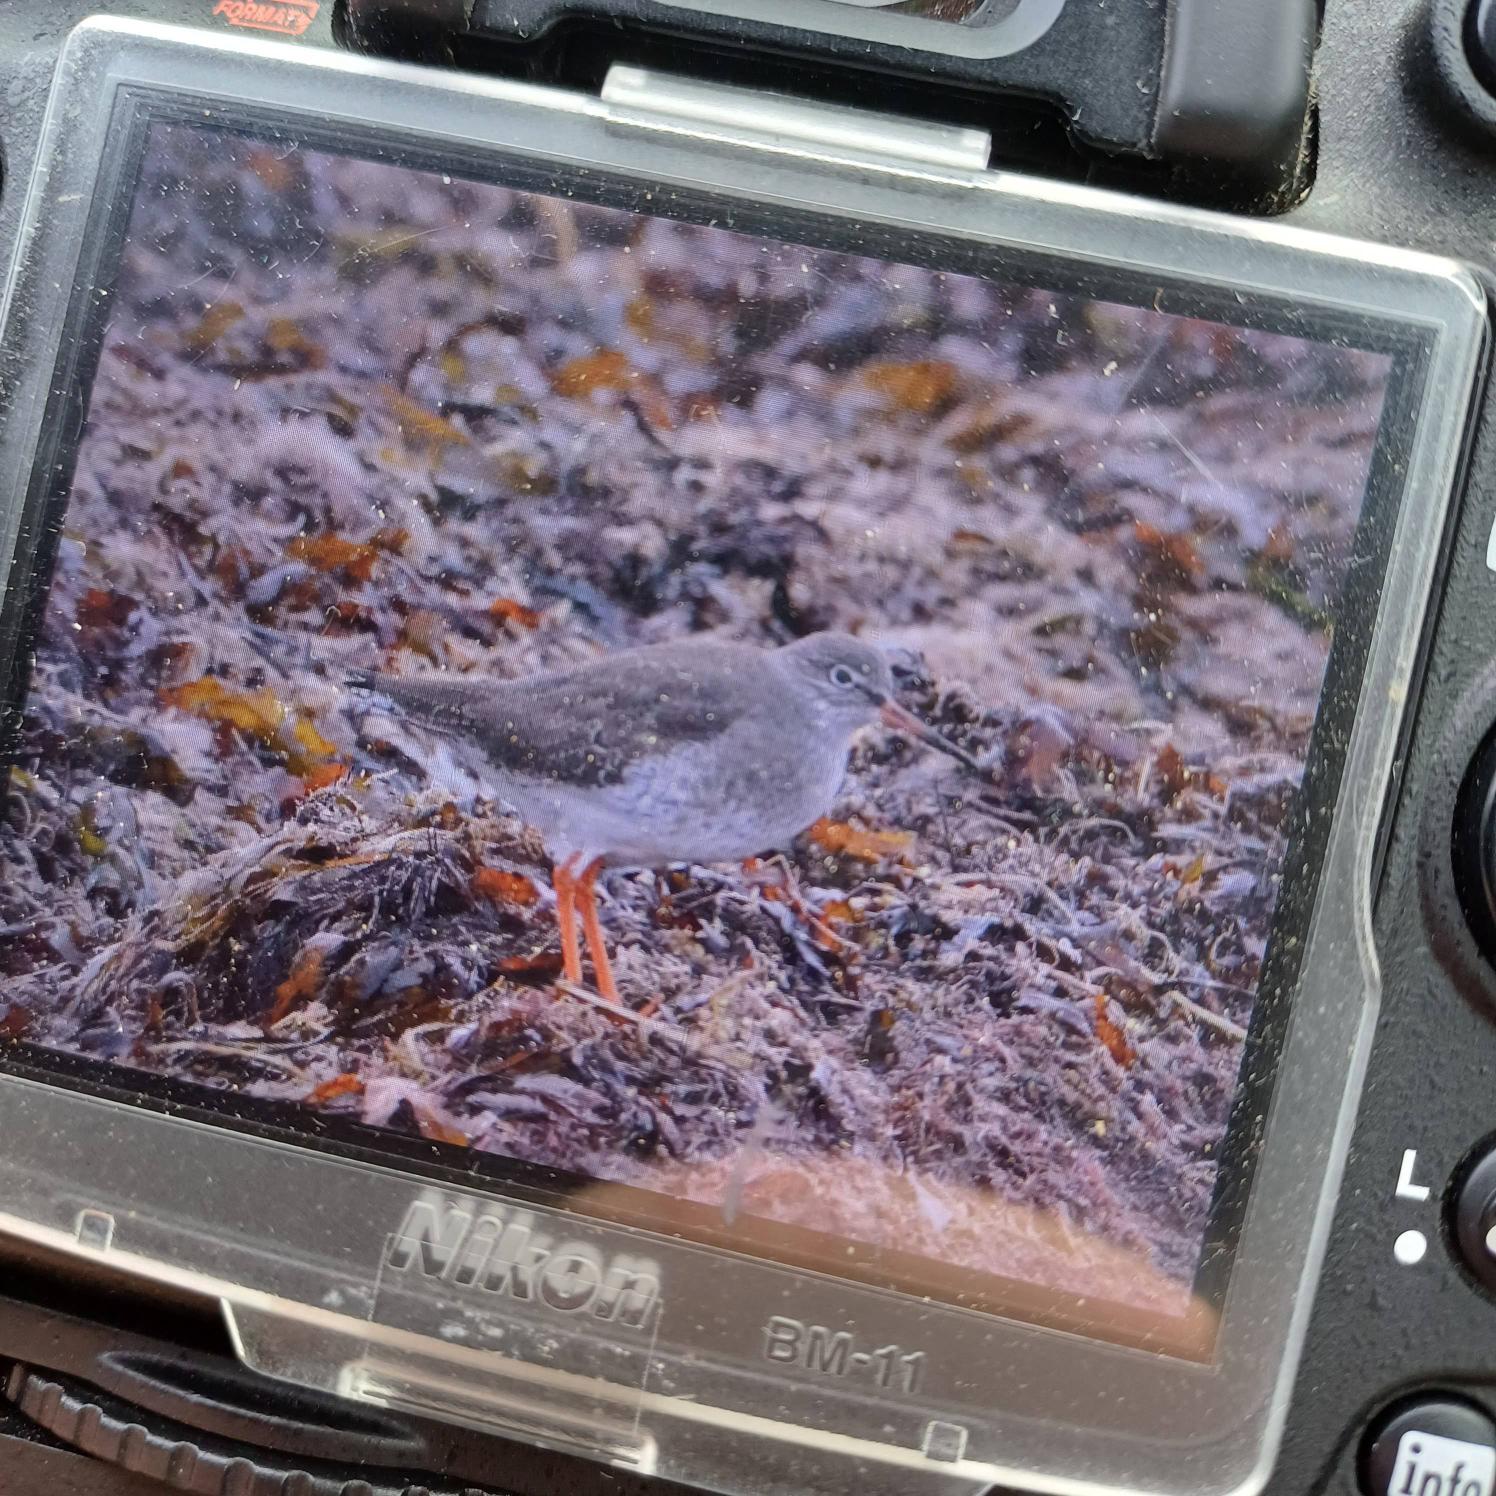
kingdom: Animalia
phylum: Chordata
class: Aves
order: Charadriiformes
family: Scolopacidae
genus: Tringa
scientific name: Tringa totanus
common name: Rødben
